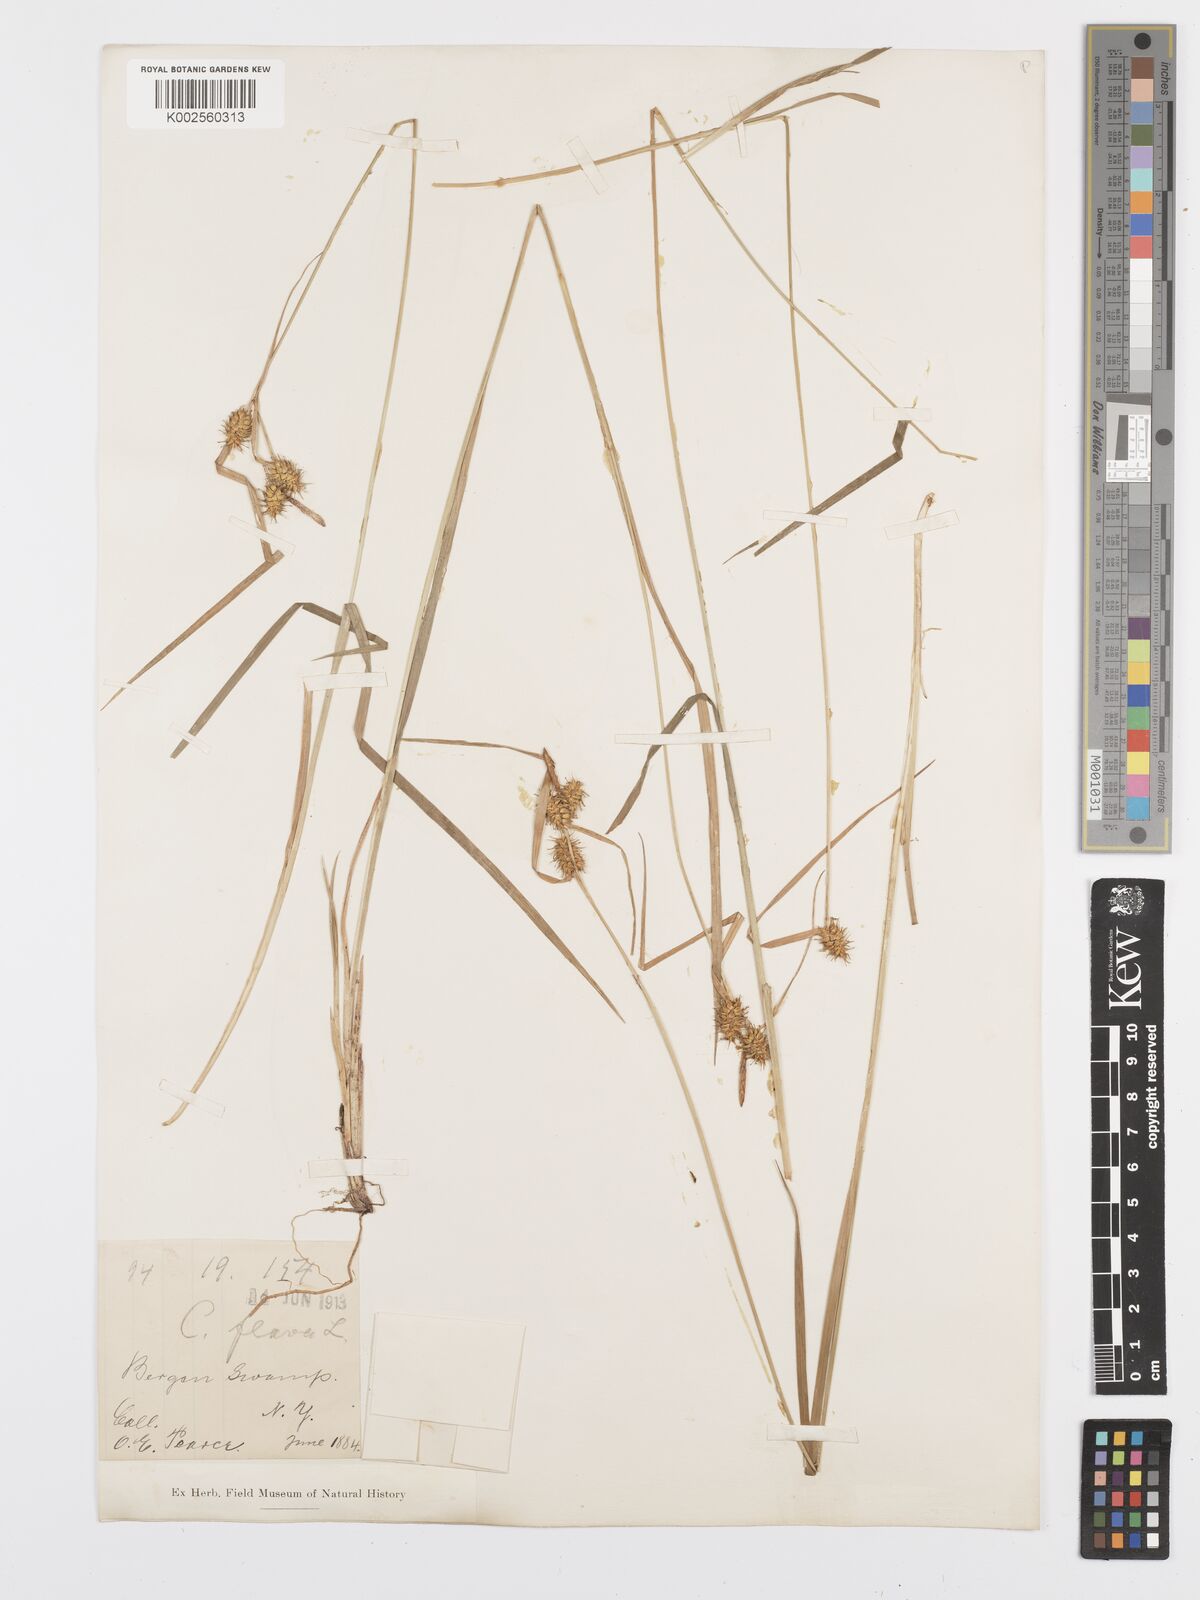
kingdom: Plantae
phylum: Tracheophyta
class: Liliopsida
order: Poales
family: Cyperaceae
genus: Carex
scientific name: Carex flava
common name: Large yellow-sedge
